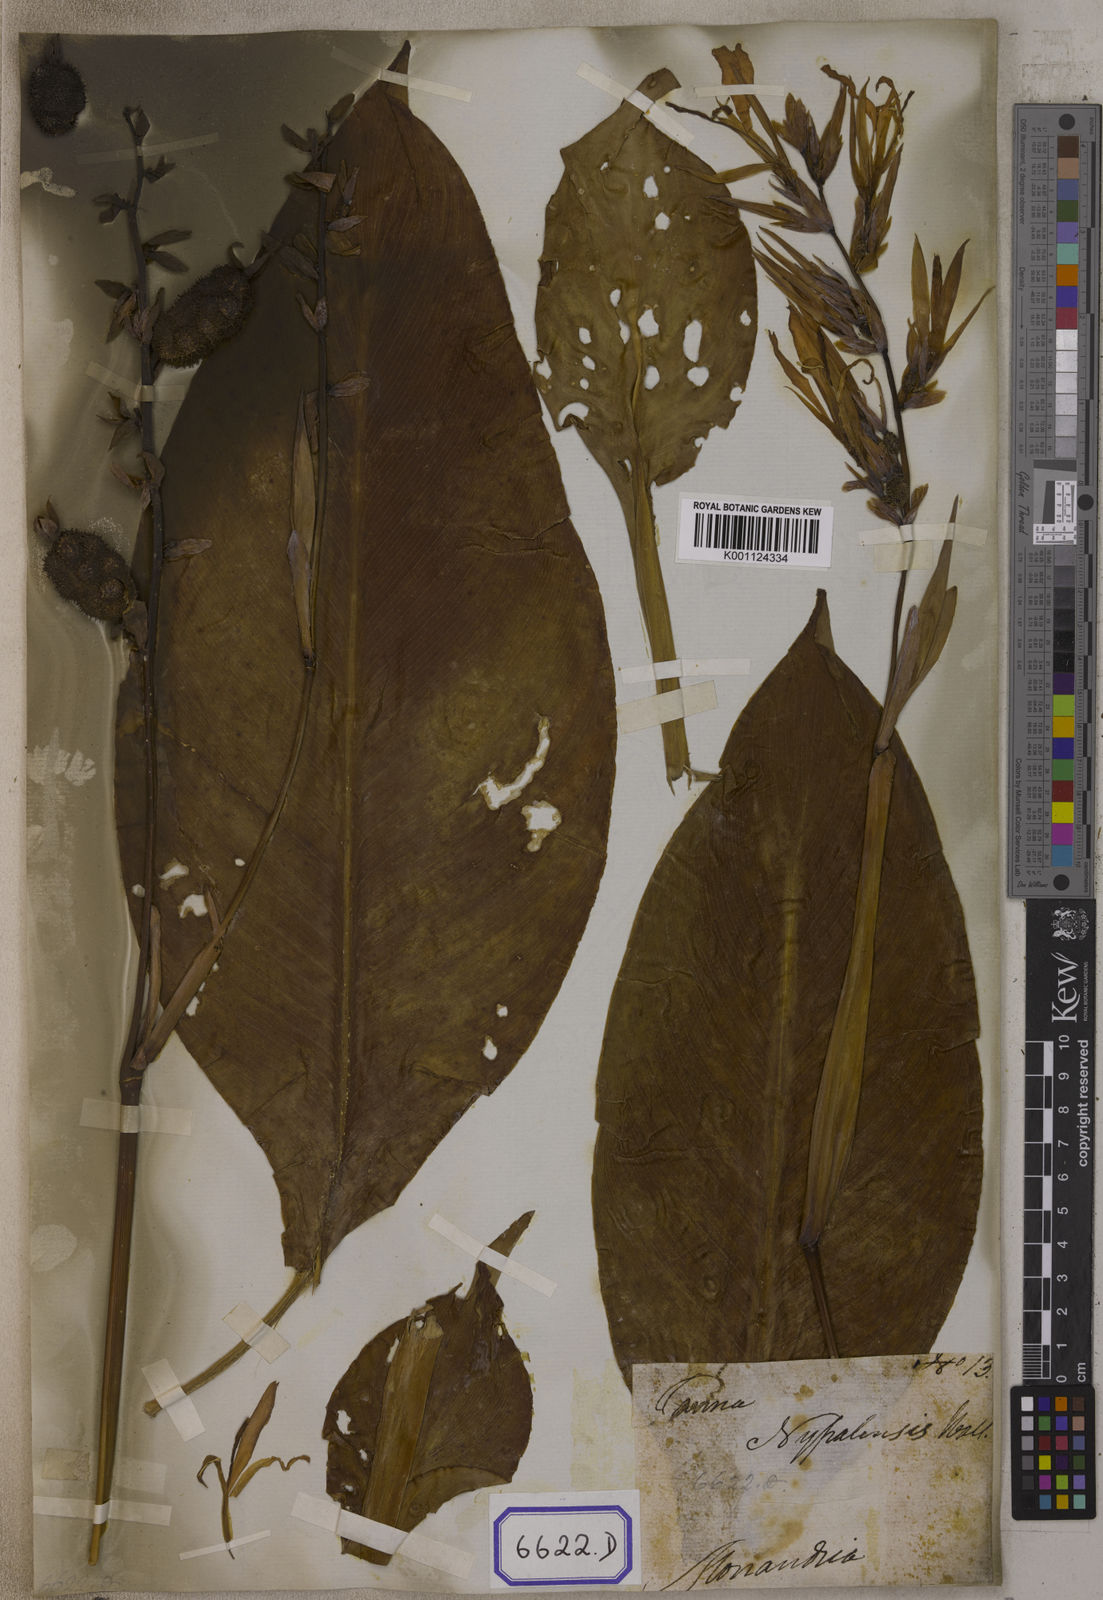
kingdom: Plantae
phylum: Tracheophyta
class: Liliopsida
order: Zingiberales
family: Cannaceae
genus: Canna
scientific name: Canna
